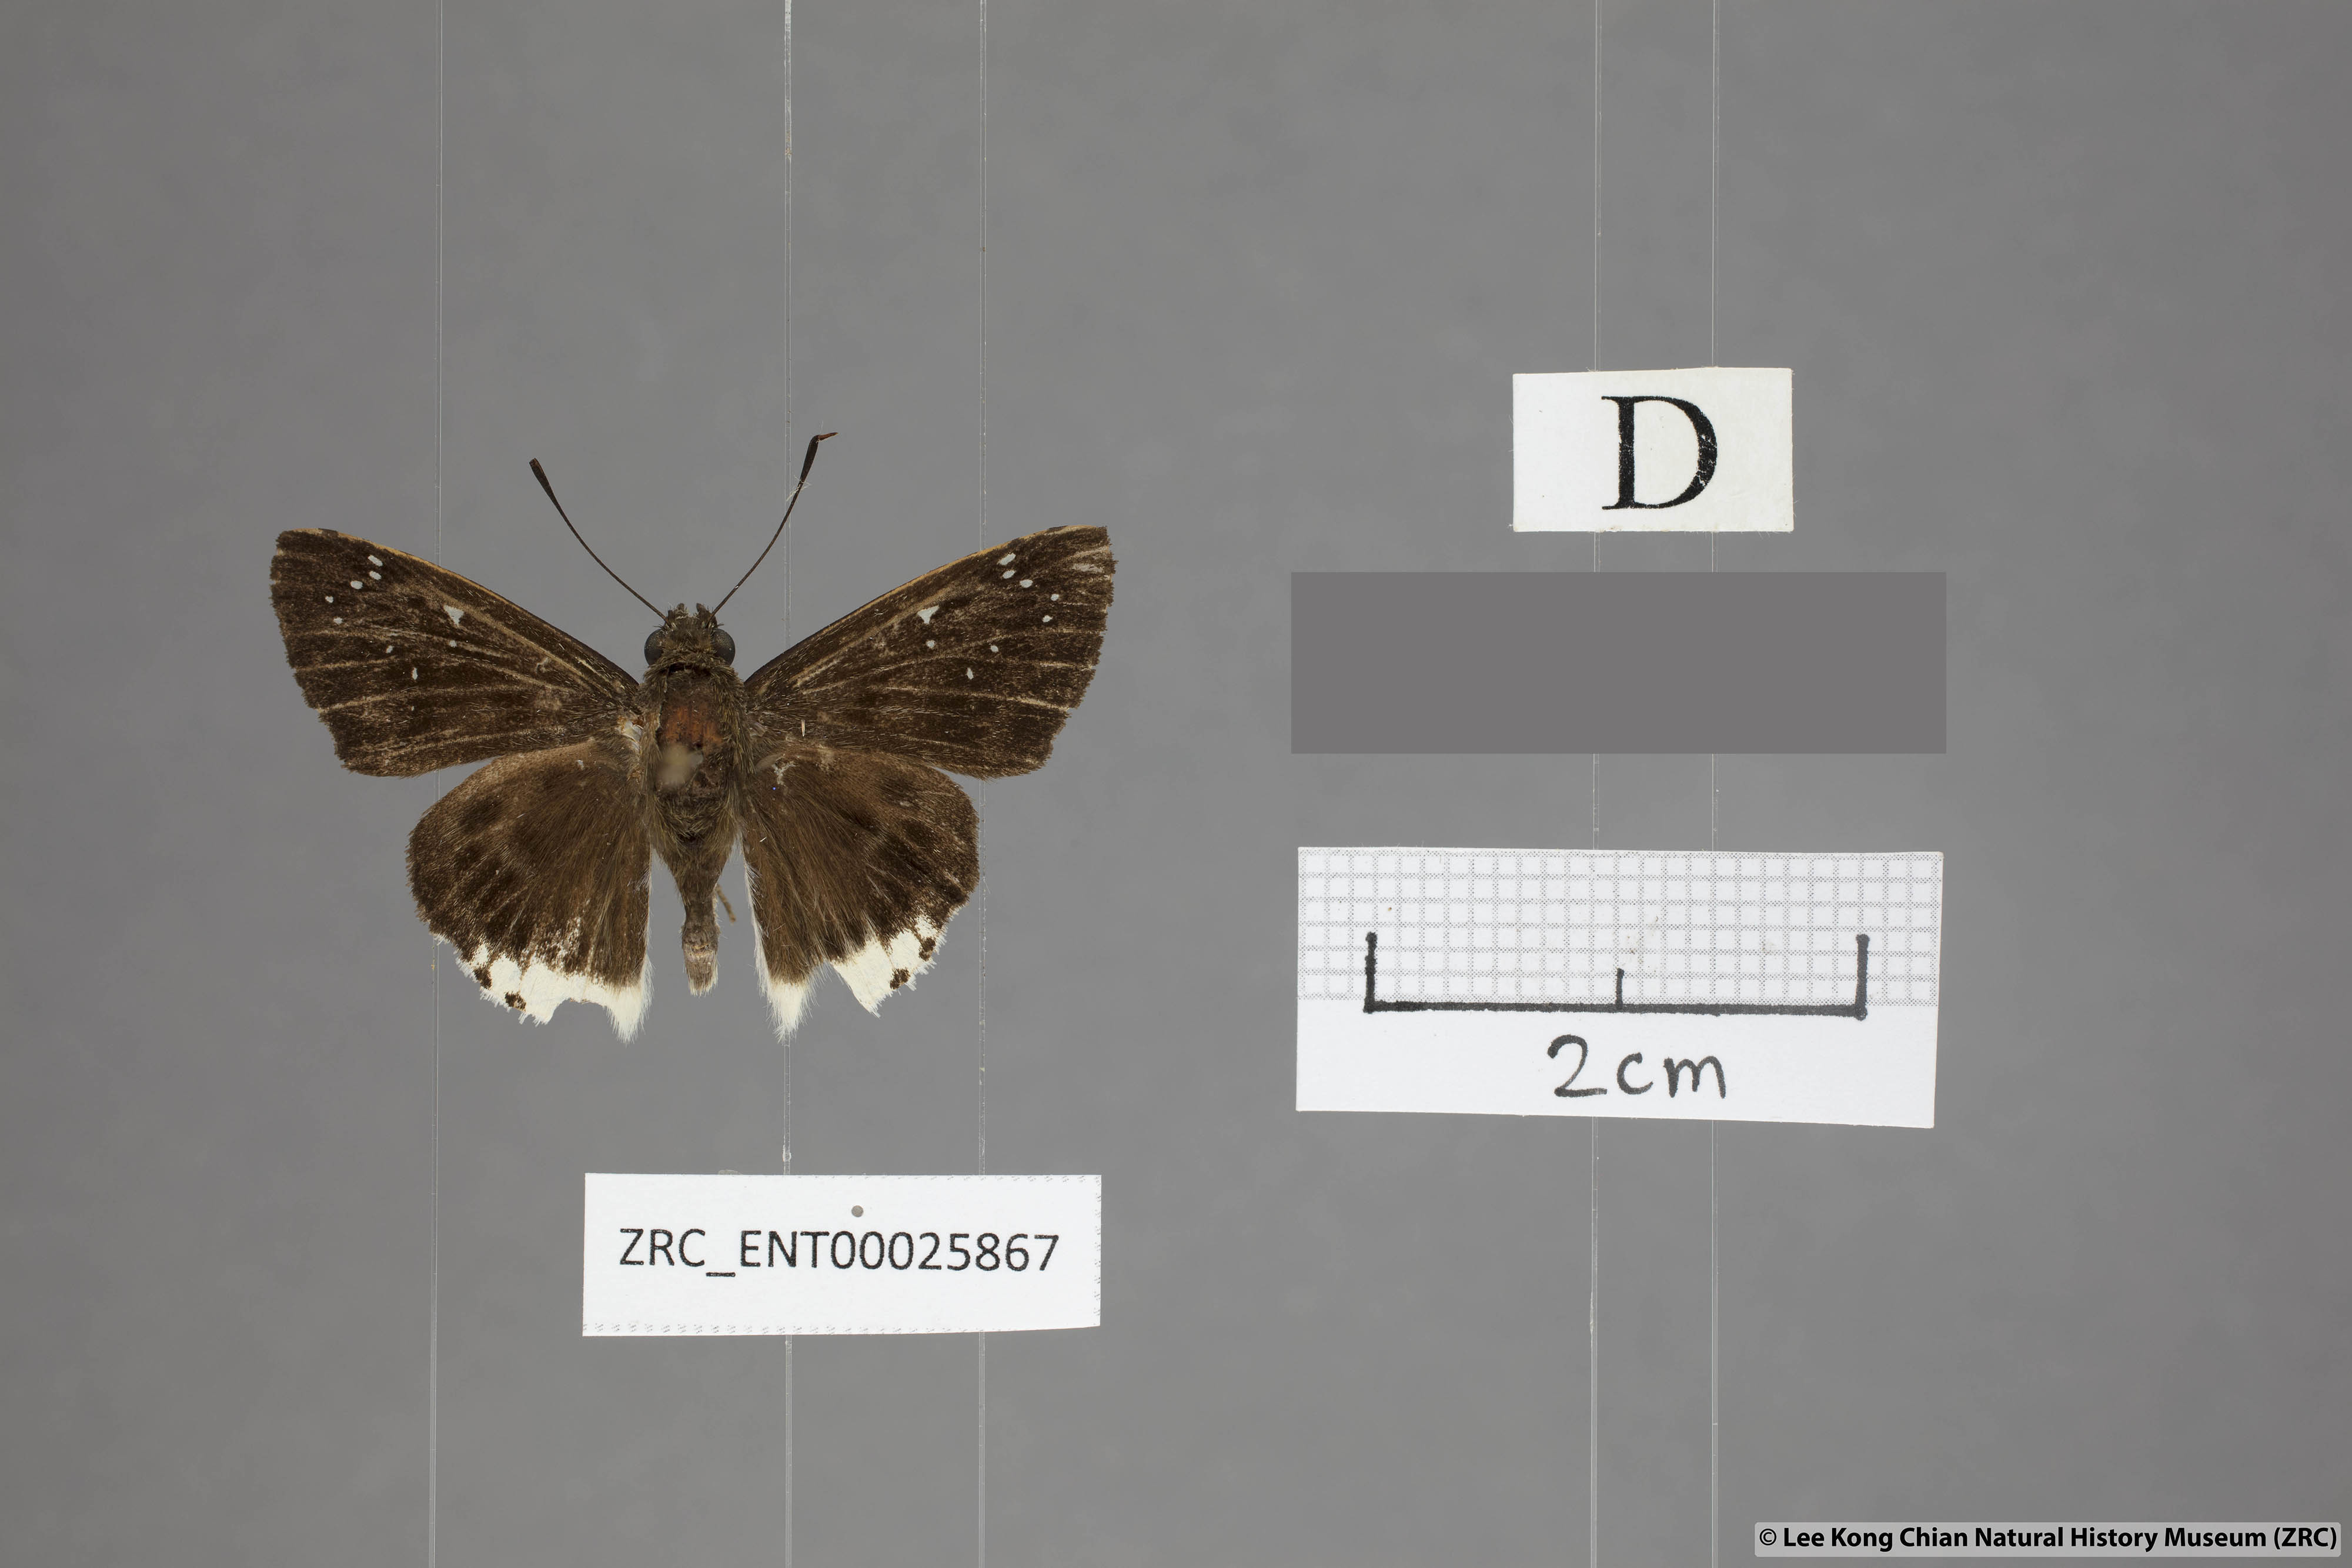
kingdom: Animalia
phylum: Arthropoda
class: Insecta
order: Lepidoptera
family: Hesperiidae
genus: Darpa
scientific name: Darpa striata
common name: Striated angle
